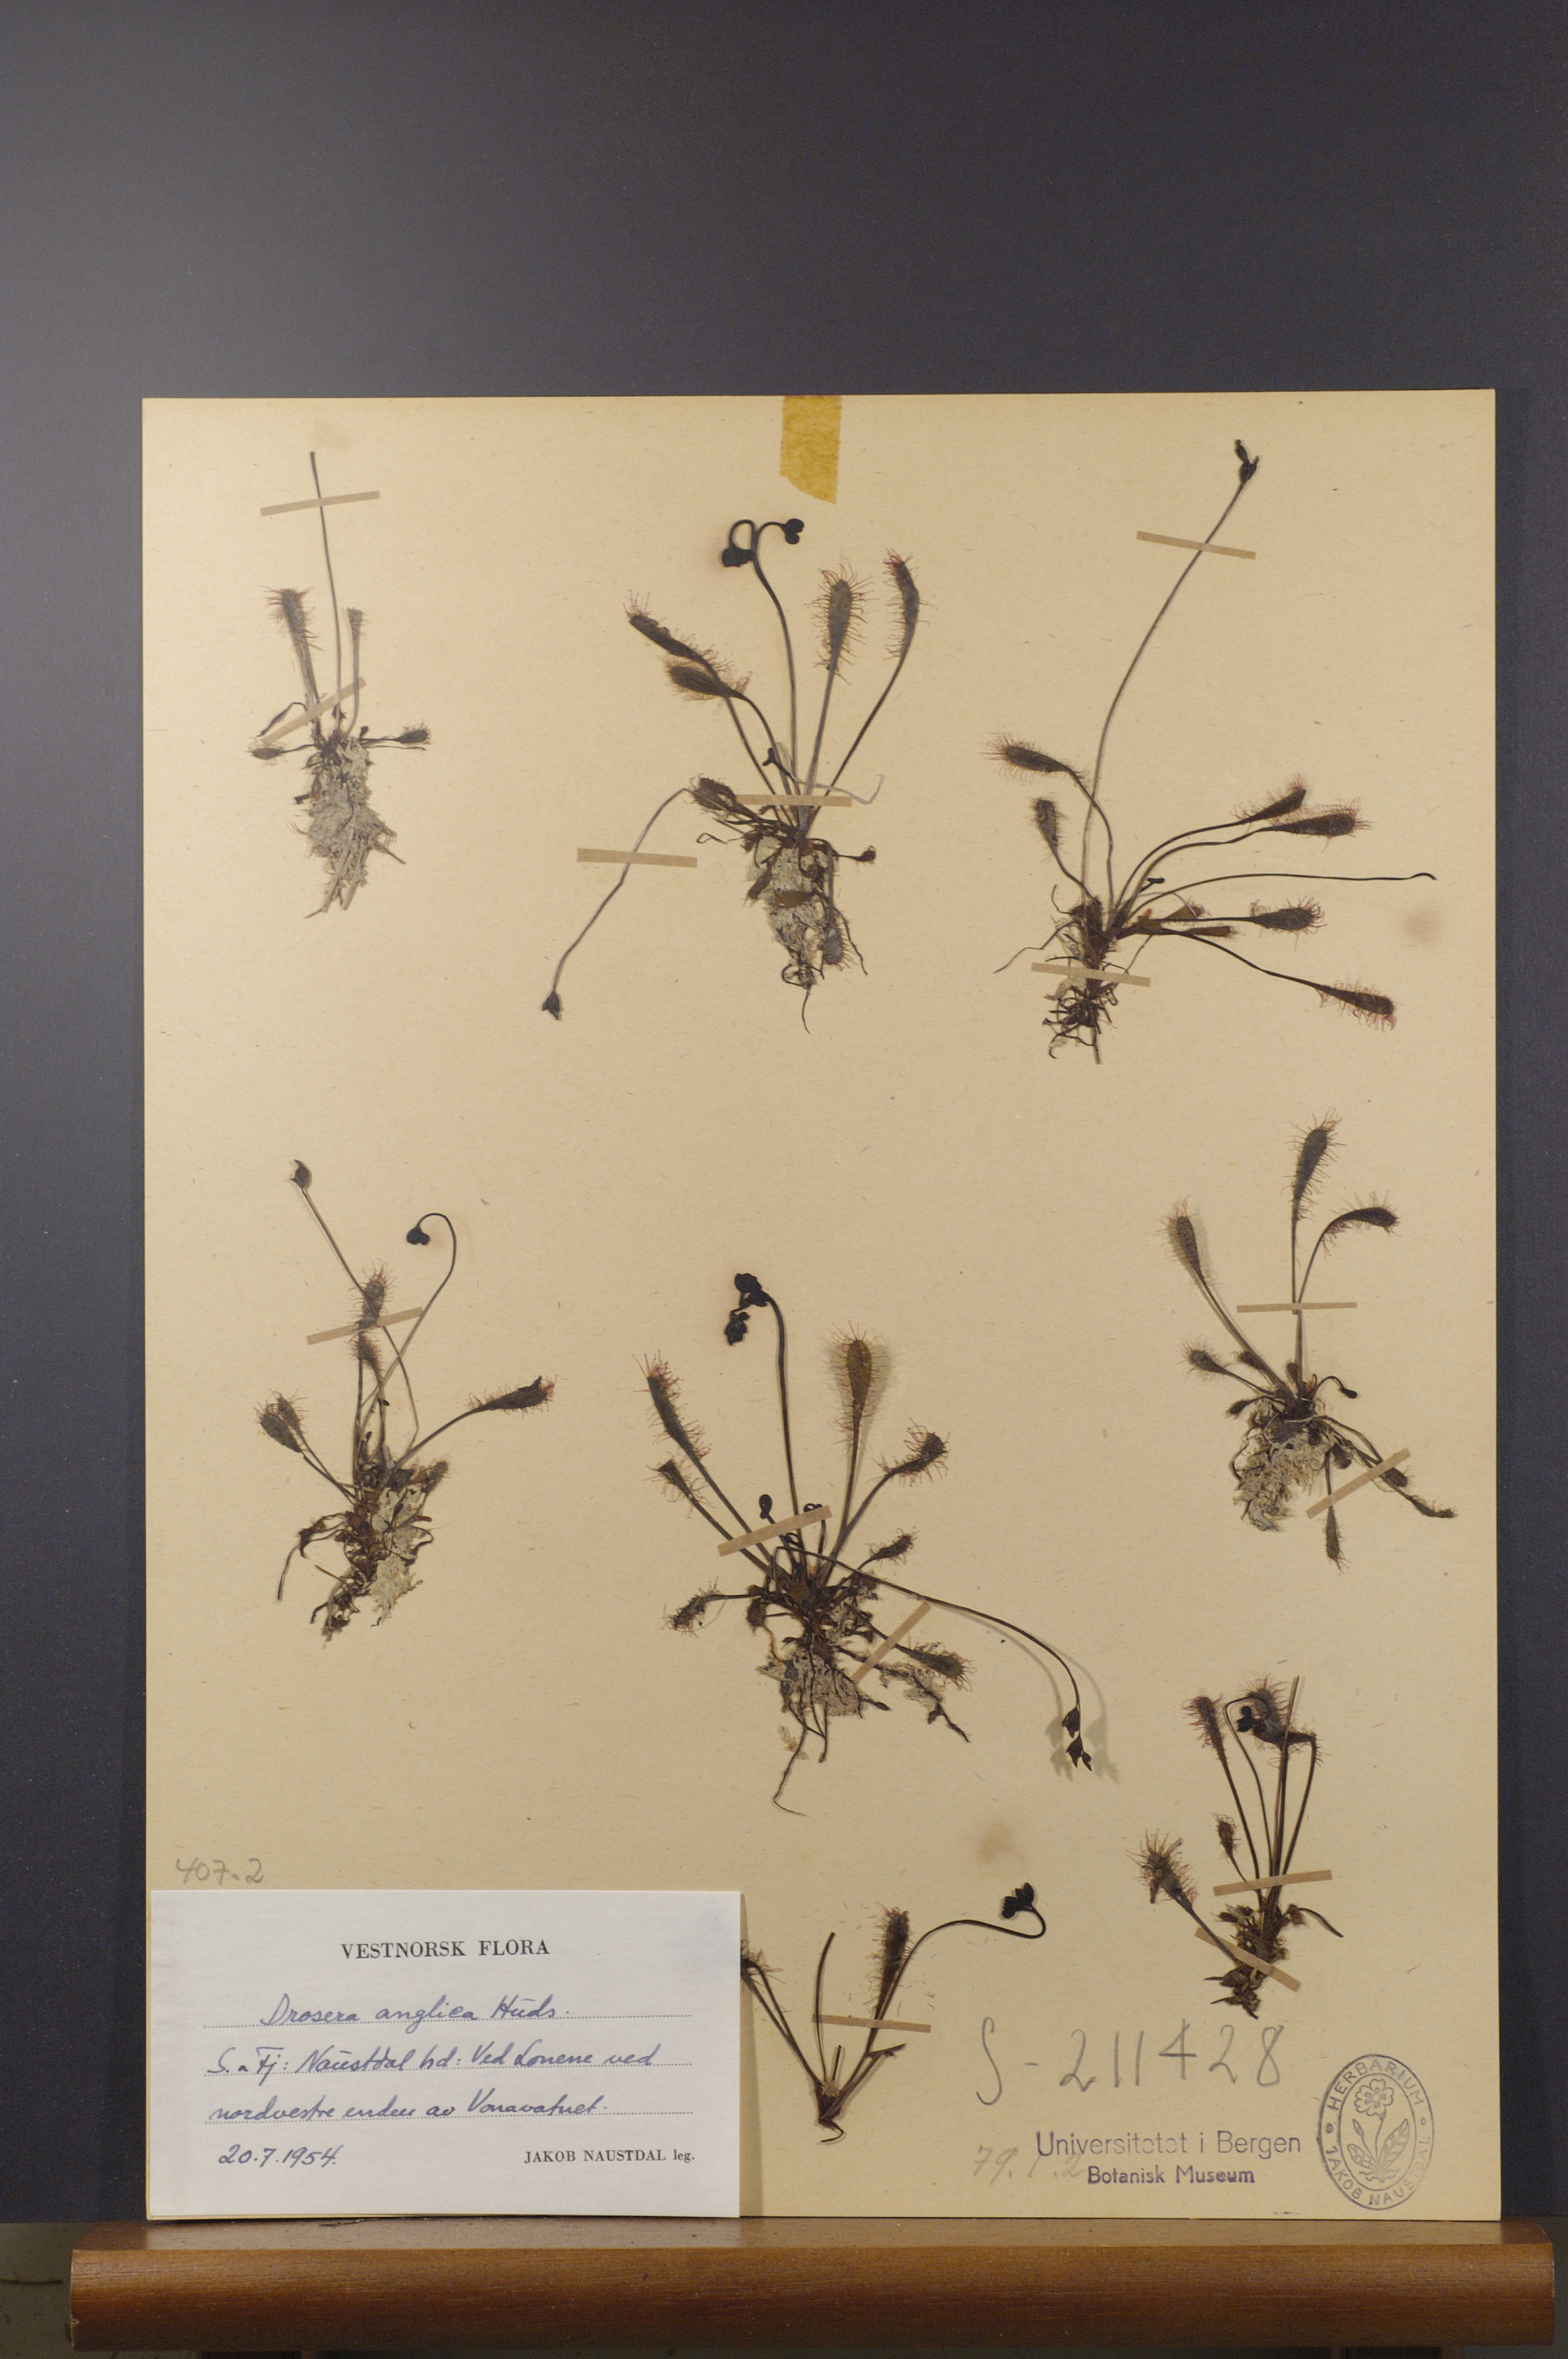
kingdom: Plantae
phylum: Tracheophyta
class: Magnoliopsida
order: Caryophyllales
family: Droseraceae
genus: Drosera
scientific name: Drosera anglica
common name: Great sundew
